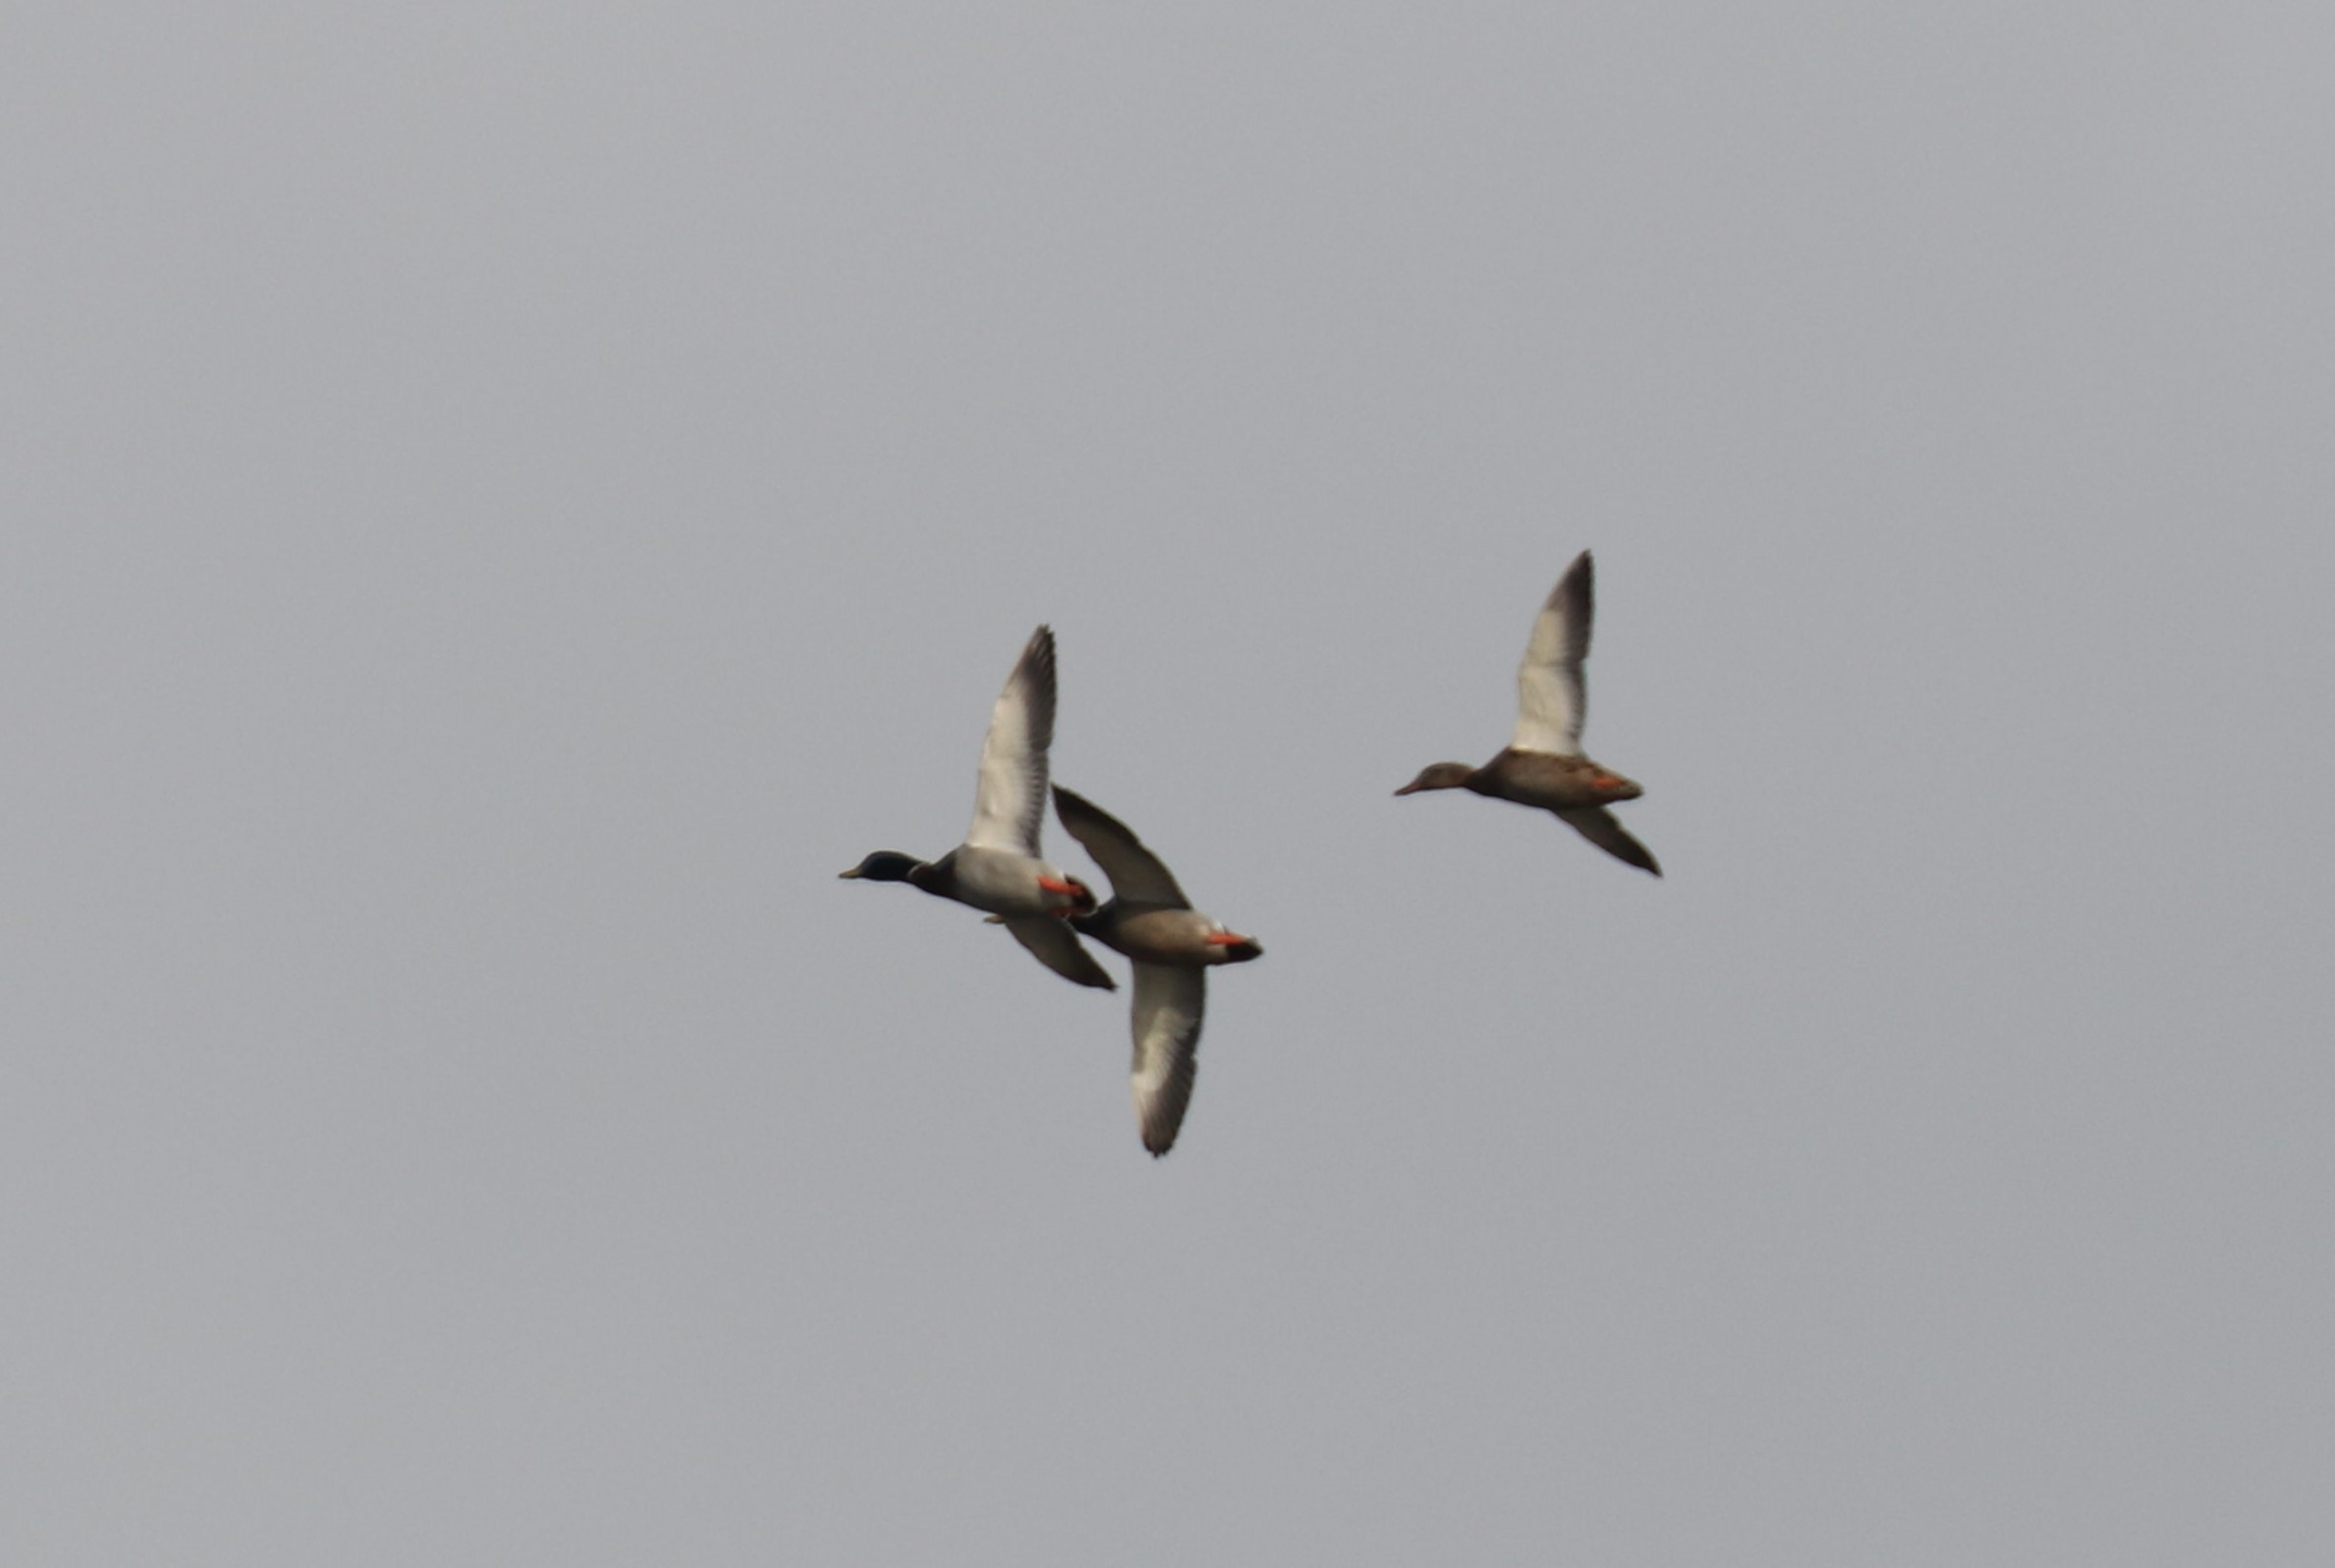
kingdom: Animalia
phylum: Chordata
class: Aves
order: Anseriformes
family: Anatidae
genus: Anas
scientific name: Anas platyrhynchos
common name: Gråand
